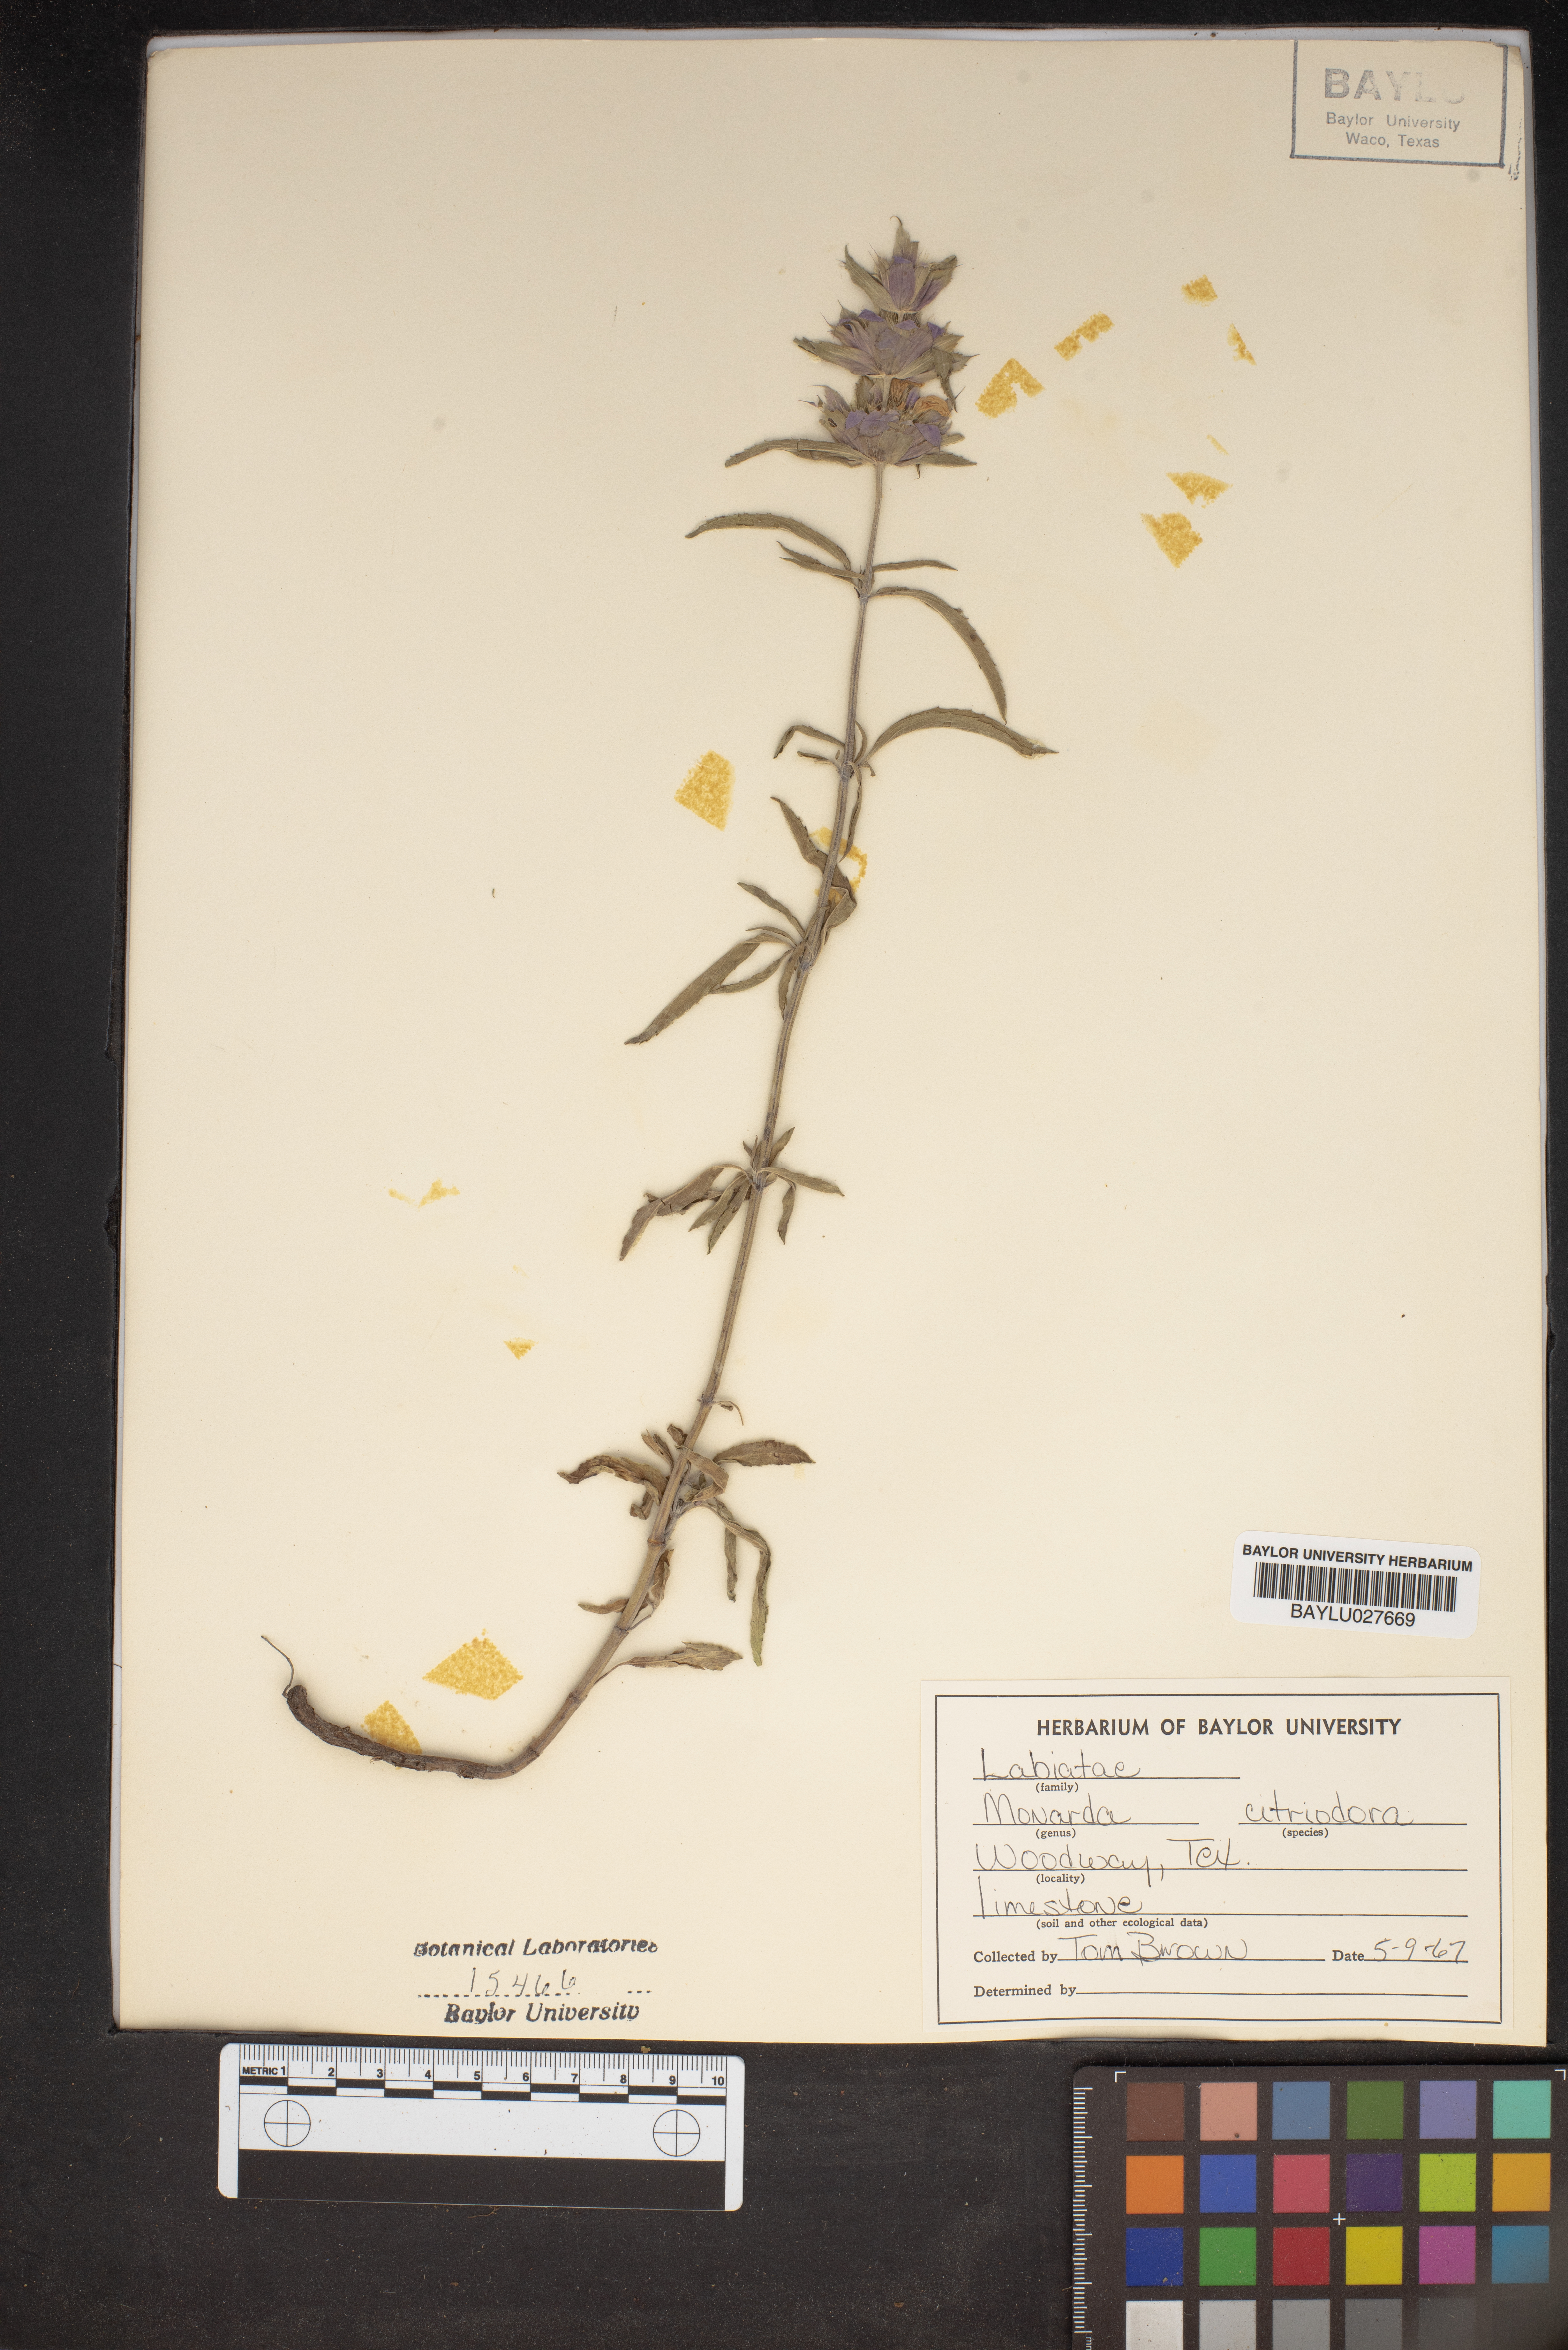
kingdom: Plantae
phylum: Tracheophyta
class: Magnoliopsida
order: Lamiales
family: Lamiaceae
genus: Monarda
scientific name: Monarda citriodora
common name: Lemon beebalm
